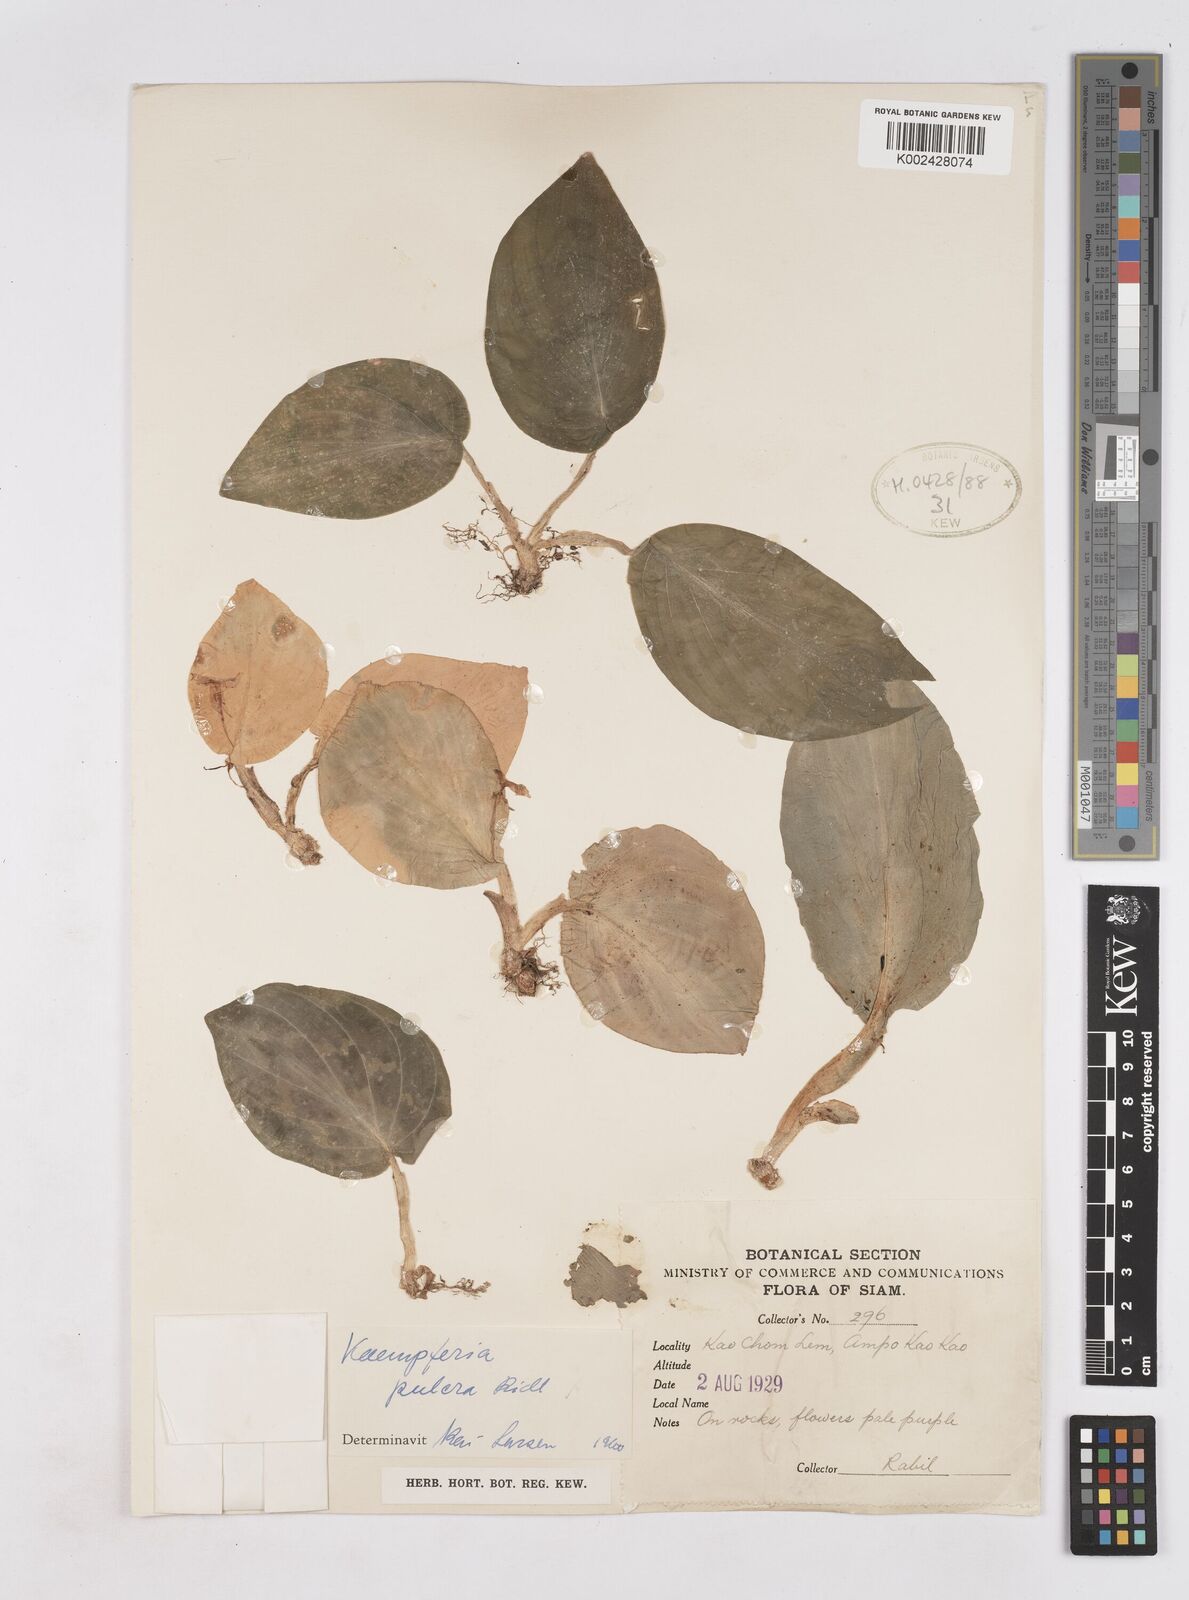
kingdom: Plantae
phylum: Tracheophyta
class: Liliopsida
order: Zingiberales
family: Zingiberaceae
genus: Kaempferia
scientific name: Kaempferia pulchra
